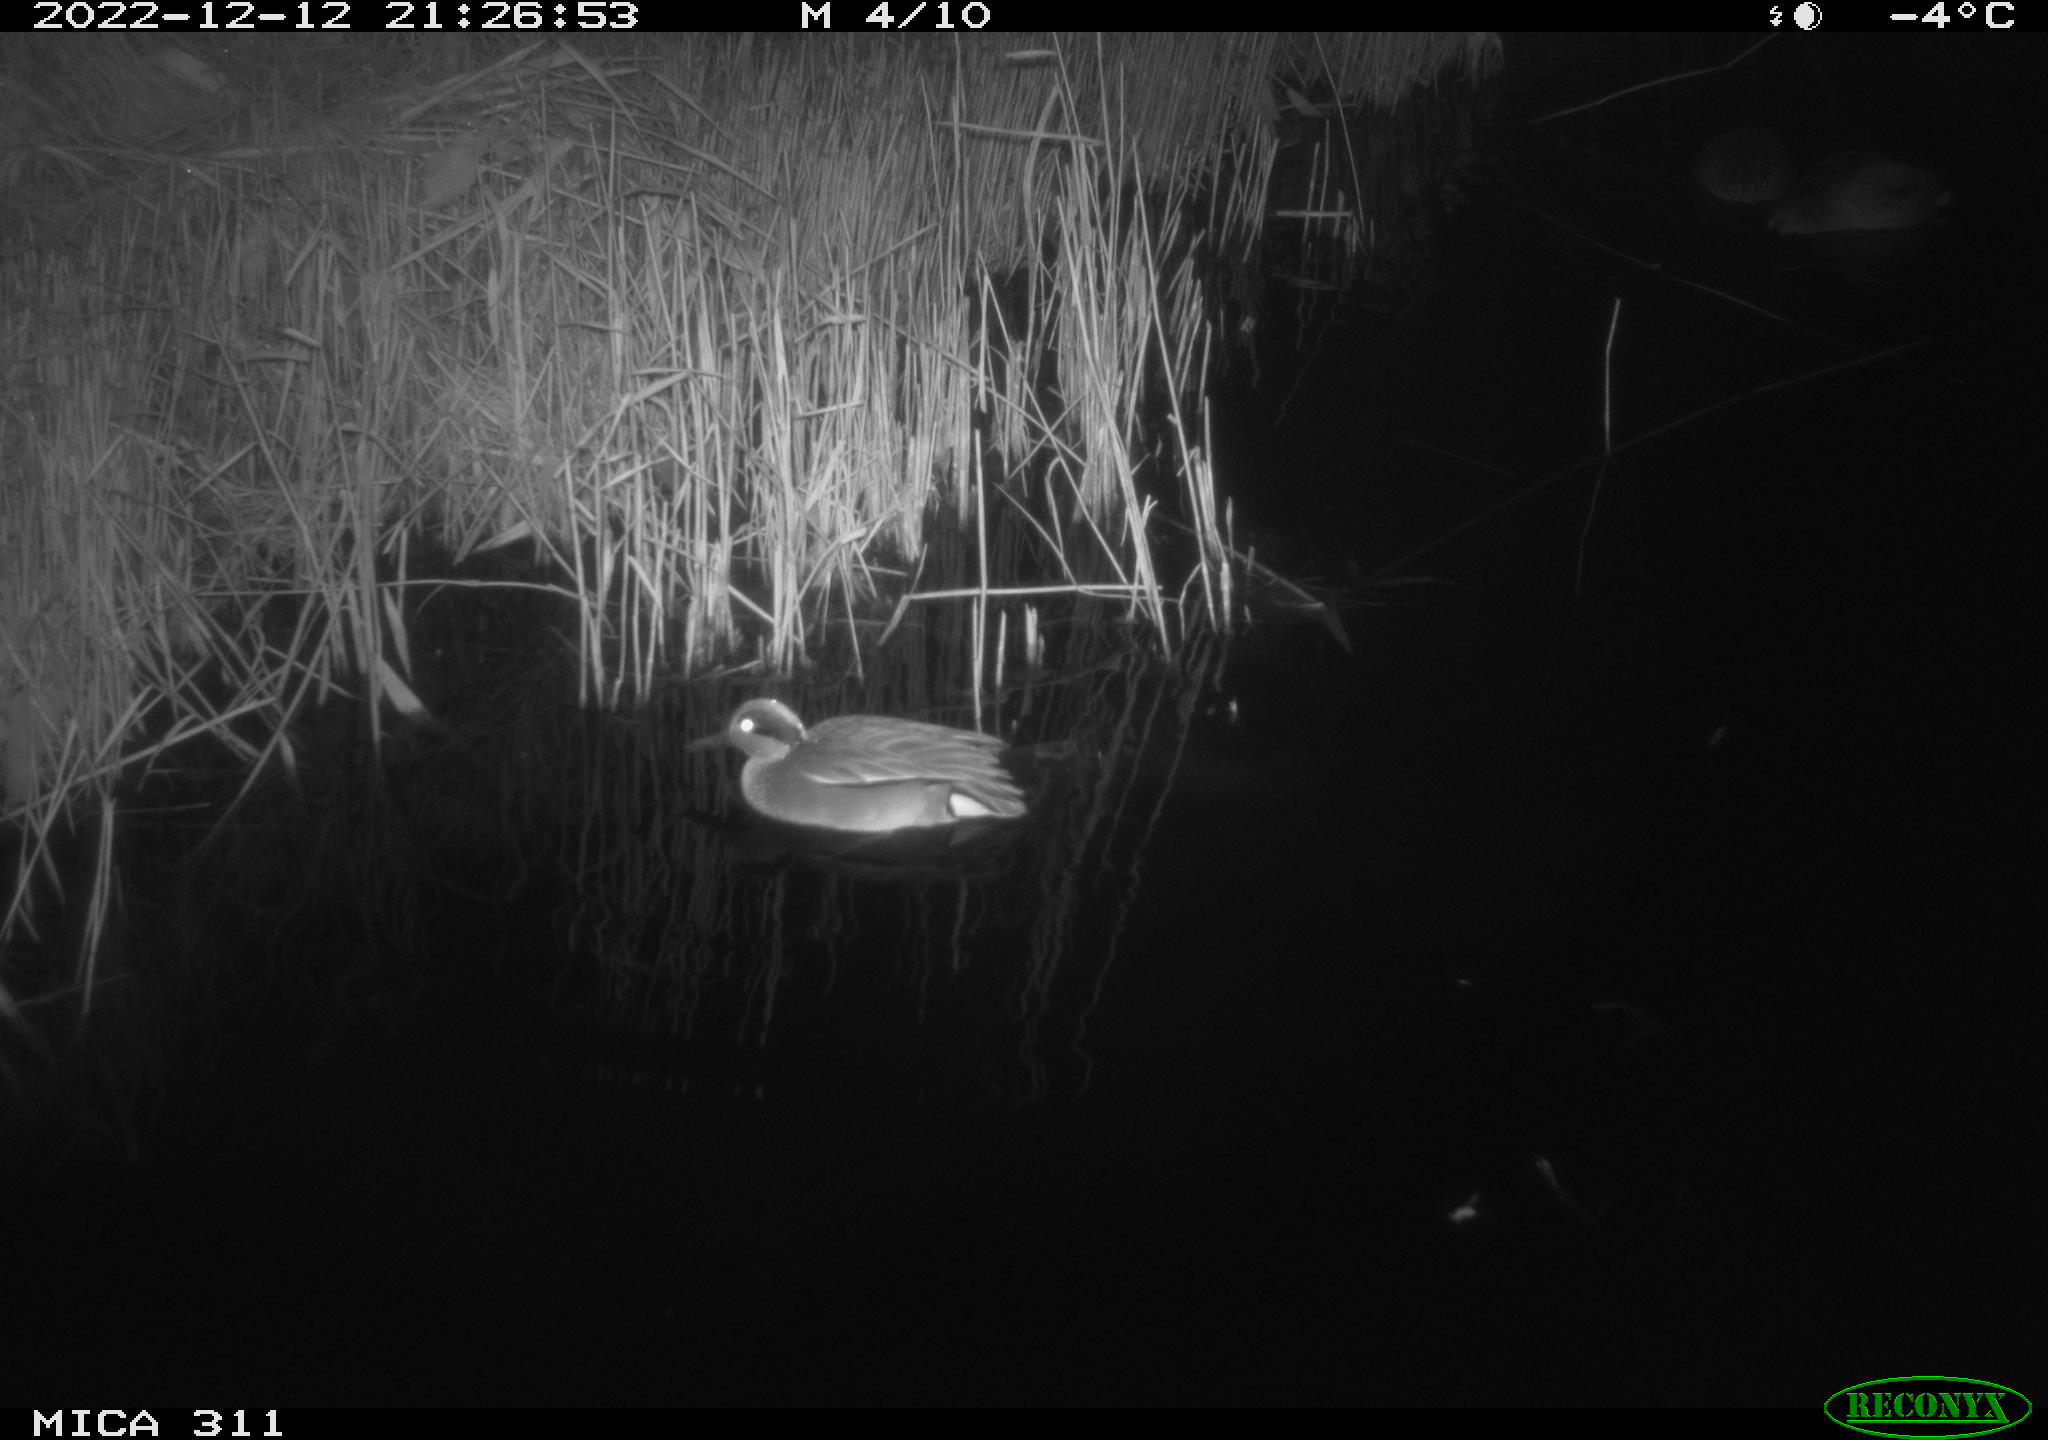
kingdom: Animalia
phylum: Chordata
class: Aves
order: Anseriformes
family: Anatidae
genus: Anas
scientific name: Anas
